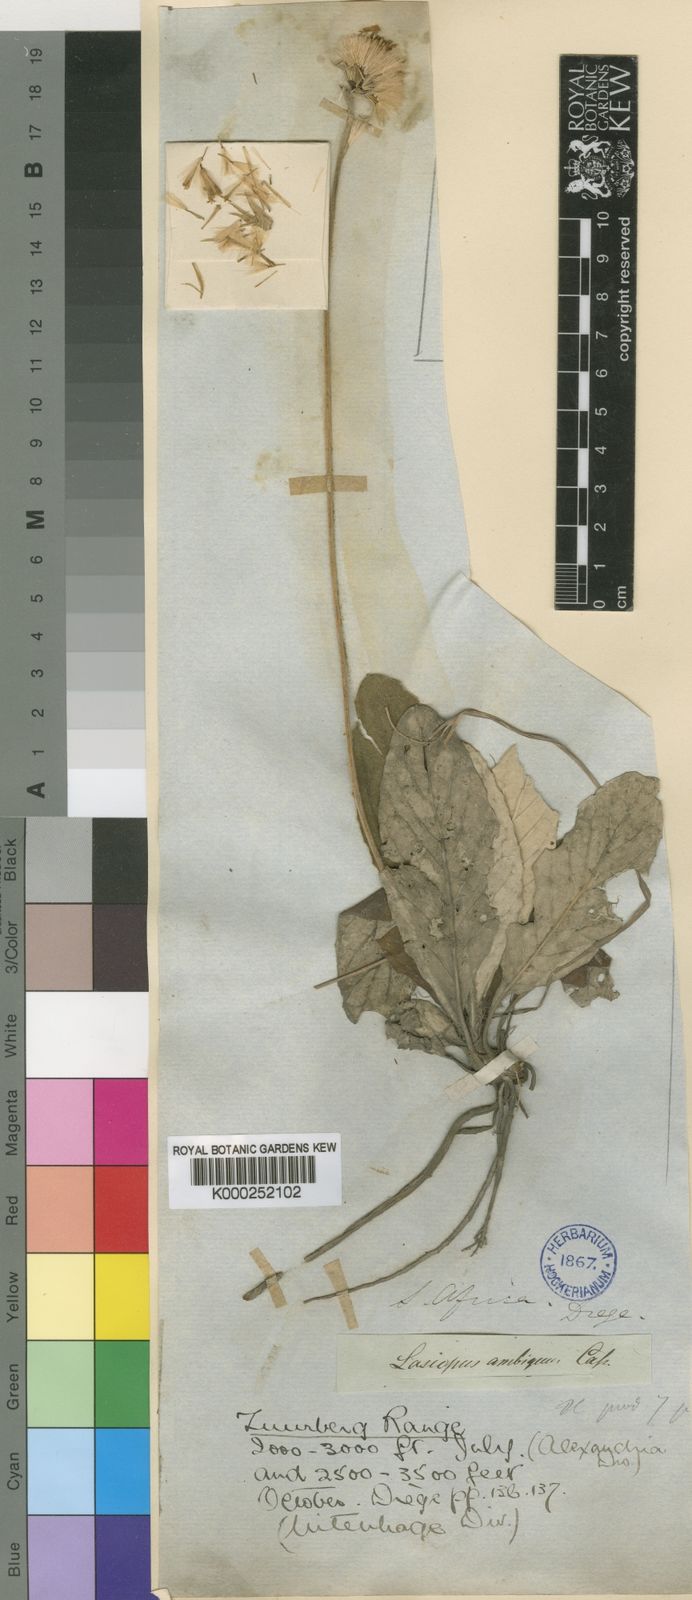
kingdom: Plantae
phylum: Tracheophyta
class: Magnoliopsida
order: Asterales
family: Asteraceae
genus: Gerbera
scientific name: Gerbera ambigua
